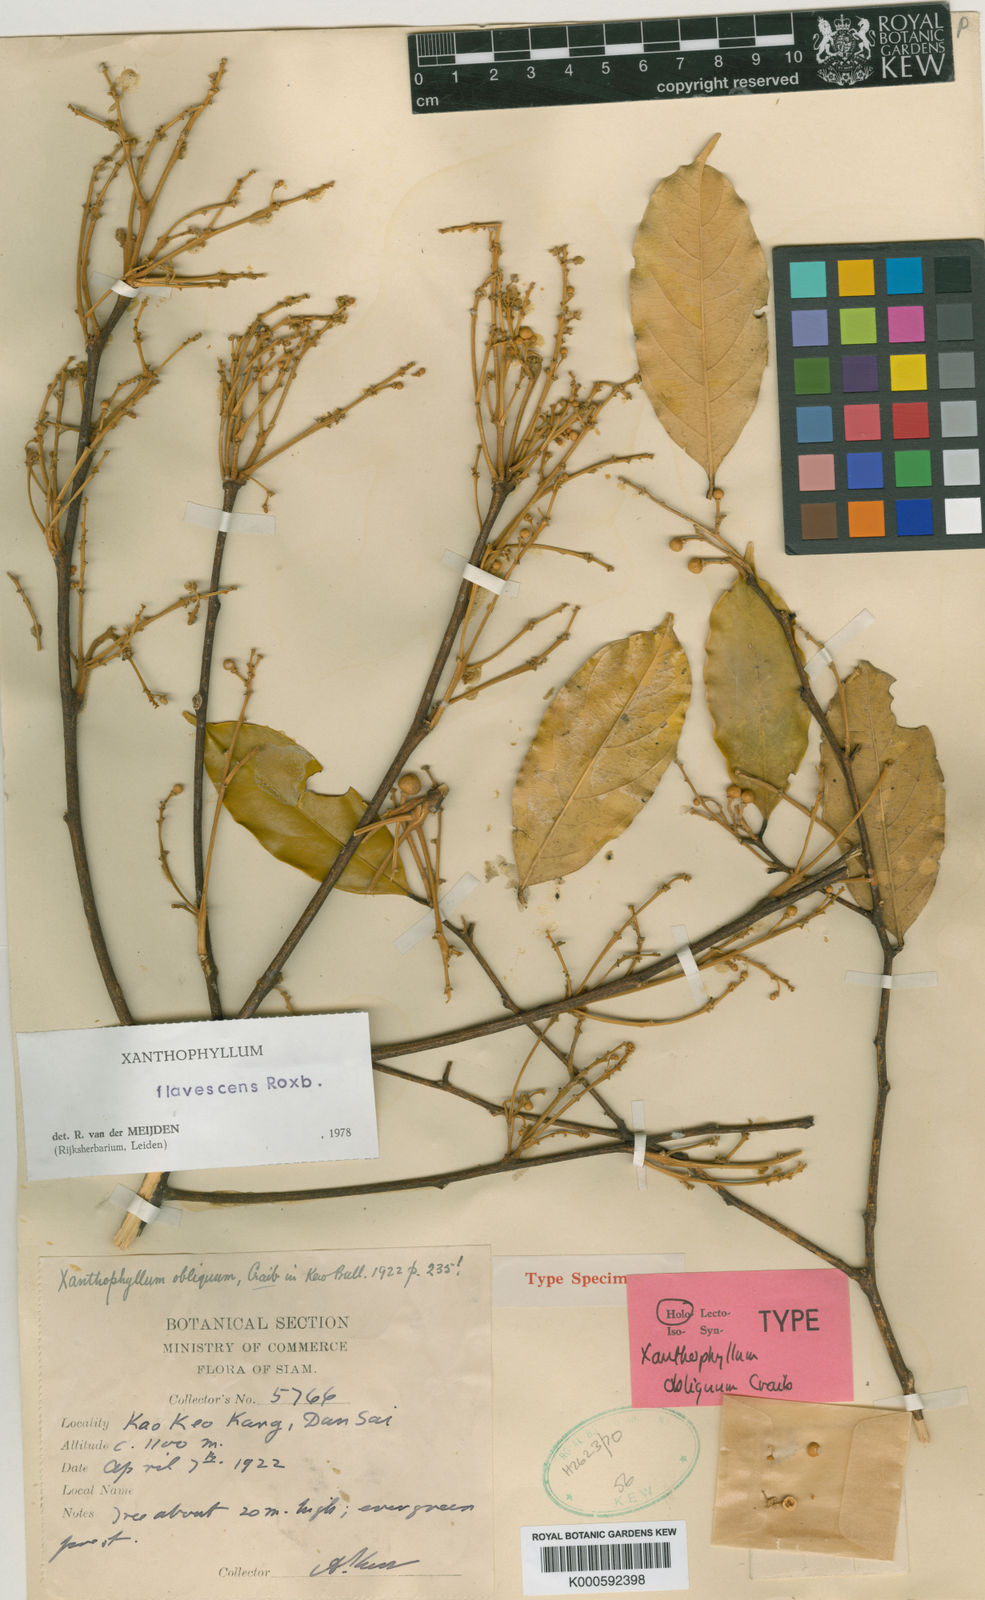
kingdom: Plantae
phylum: Tracheophyta
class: Magnoliopsida
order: Fabales
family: Polygalaceae
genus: Xanthophyllum
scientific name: Xanthophyllum flavescens
